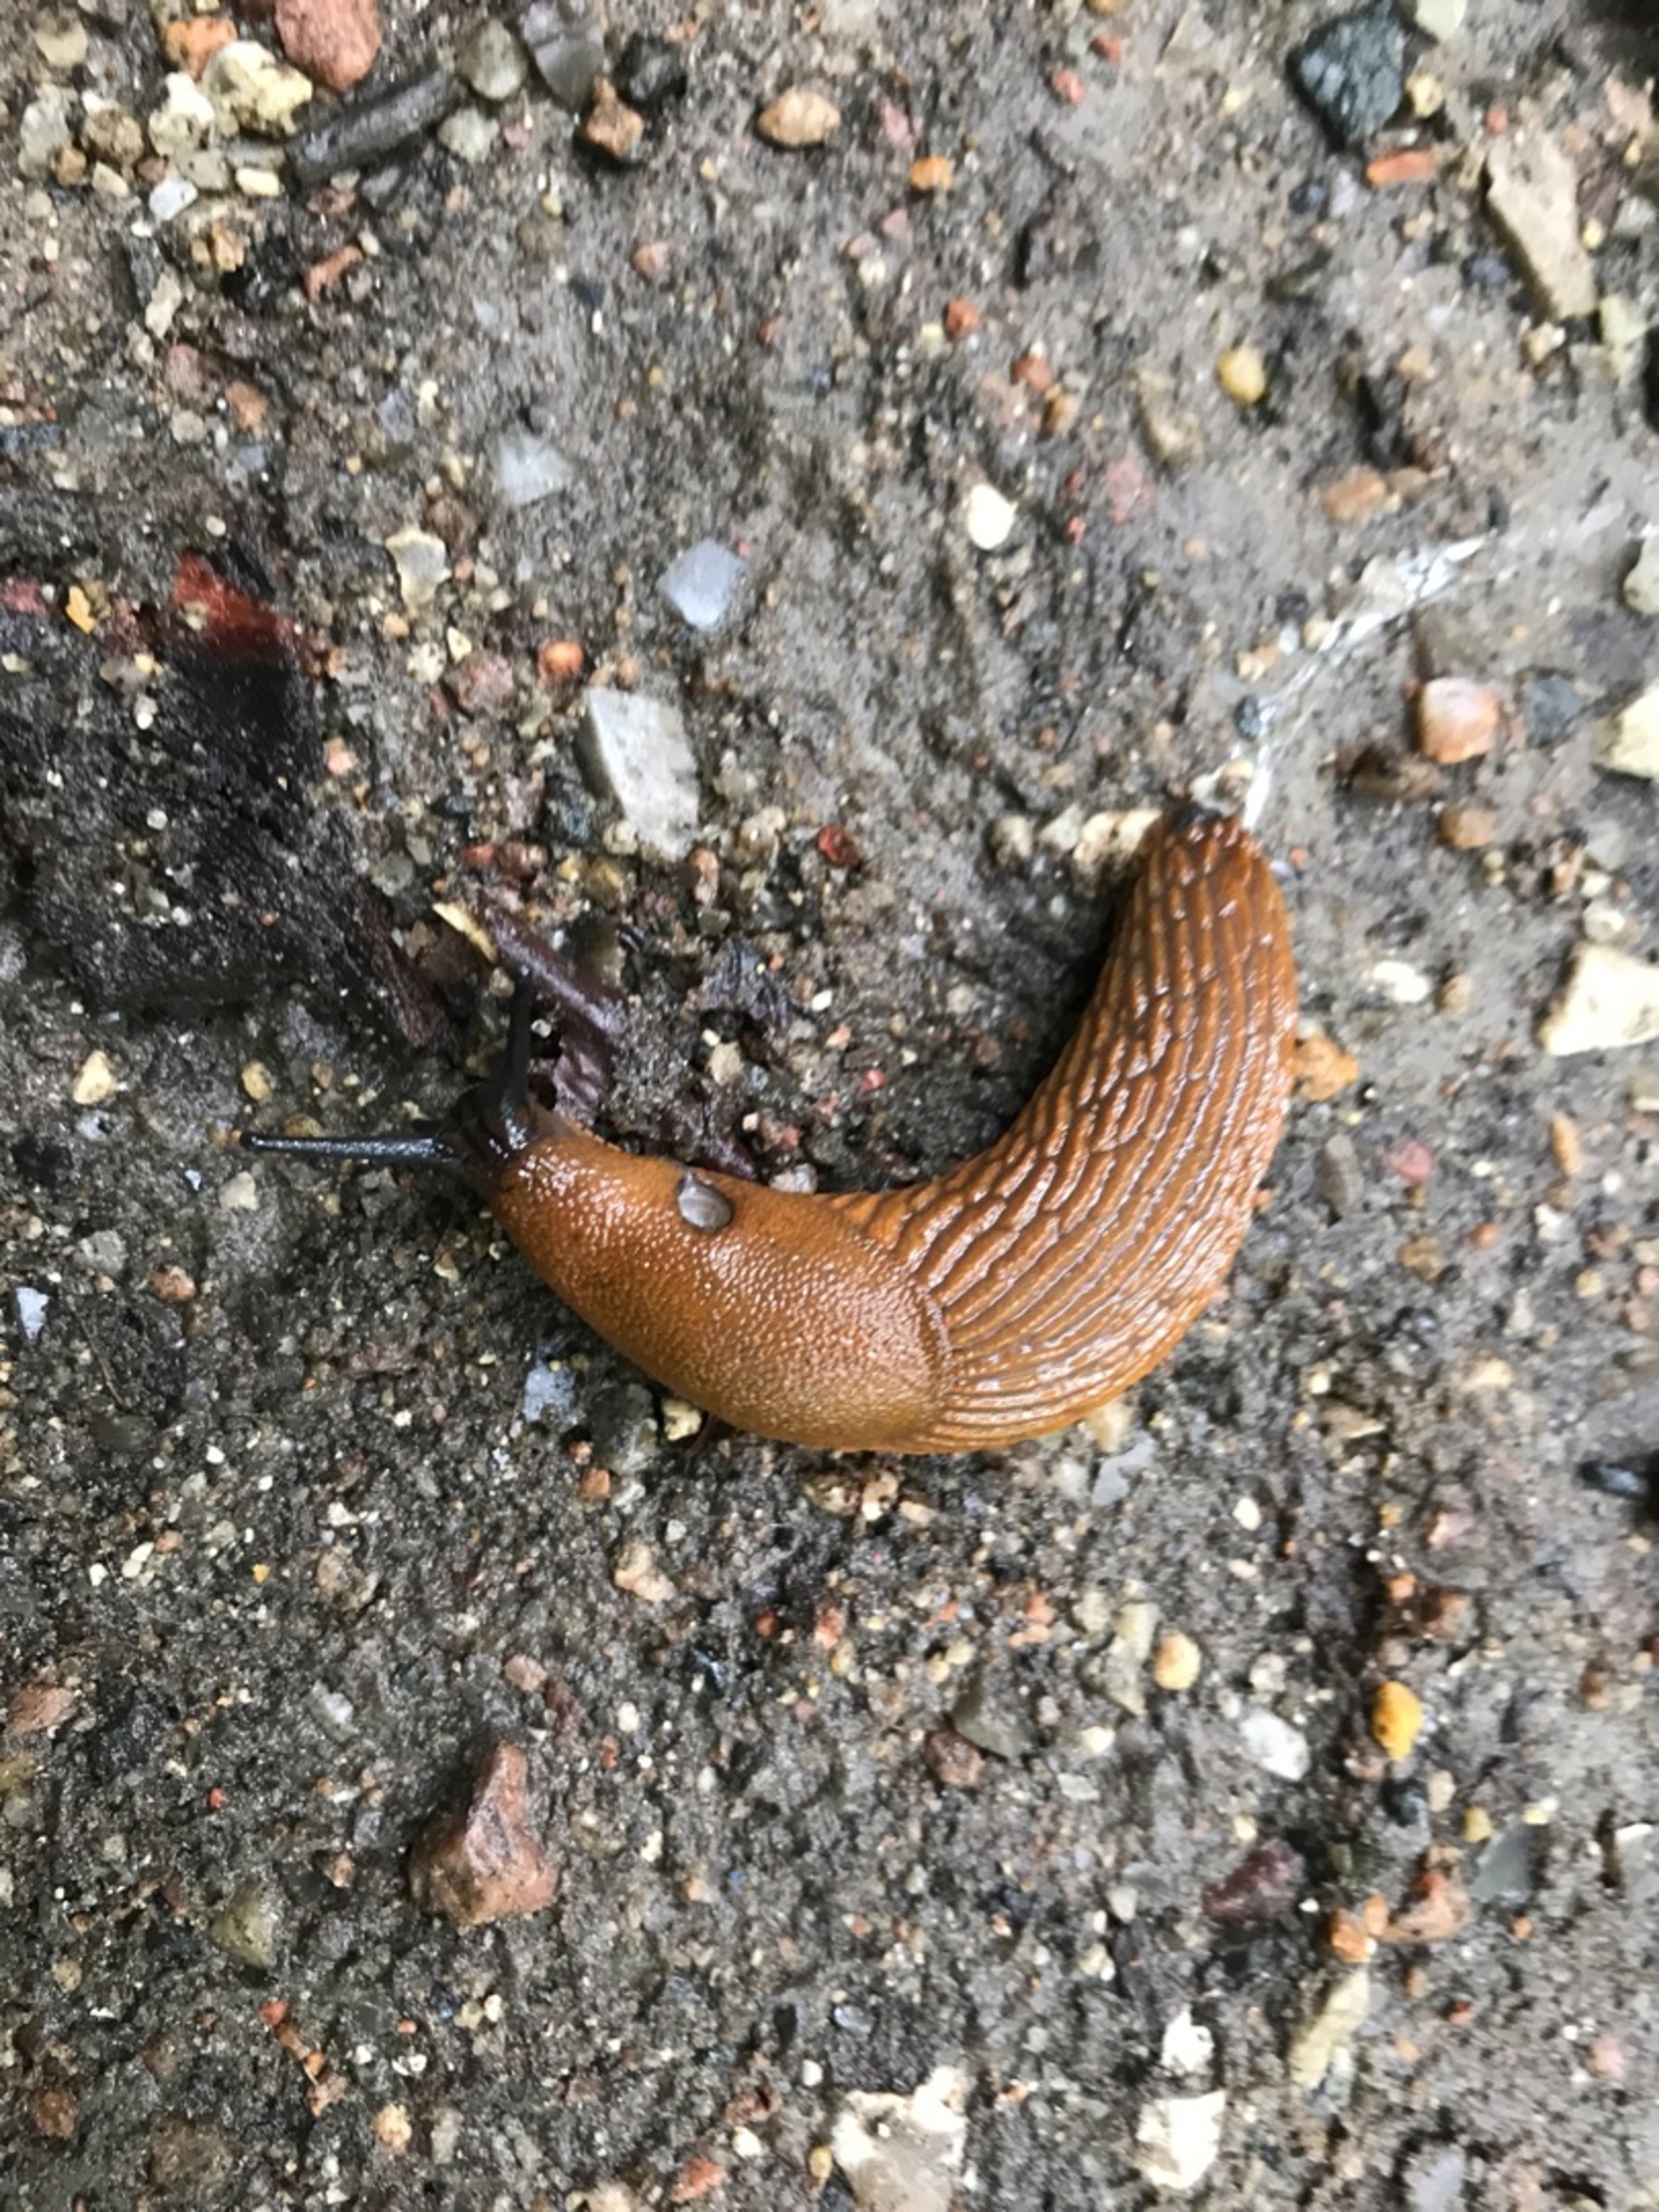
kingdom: Animalia
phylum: Mollusca
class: Gastropoda
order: Stylommatophora
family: Arionidae
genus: Arion
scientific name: Arion vulgaris
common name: Iberisk skovsnegl
